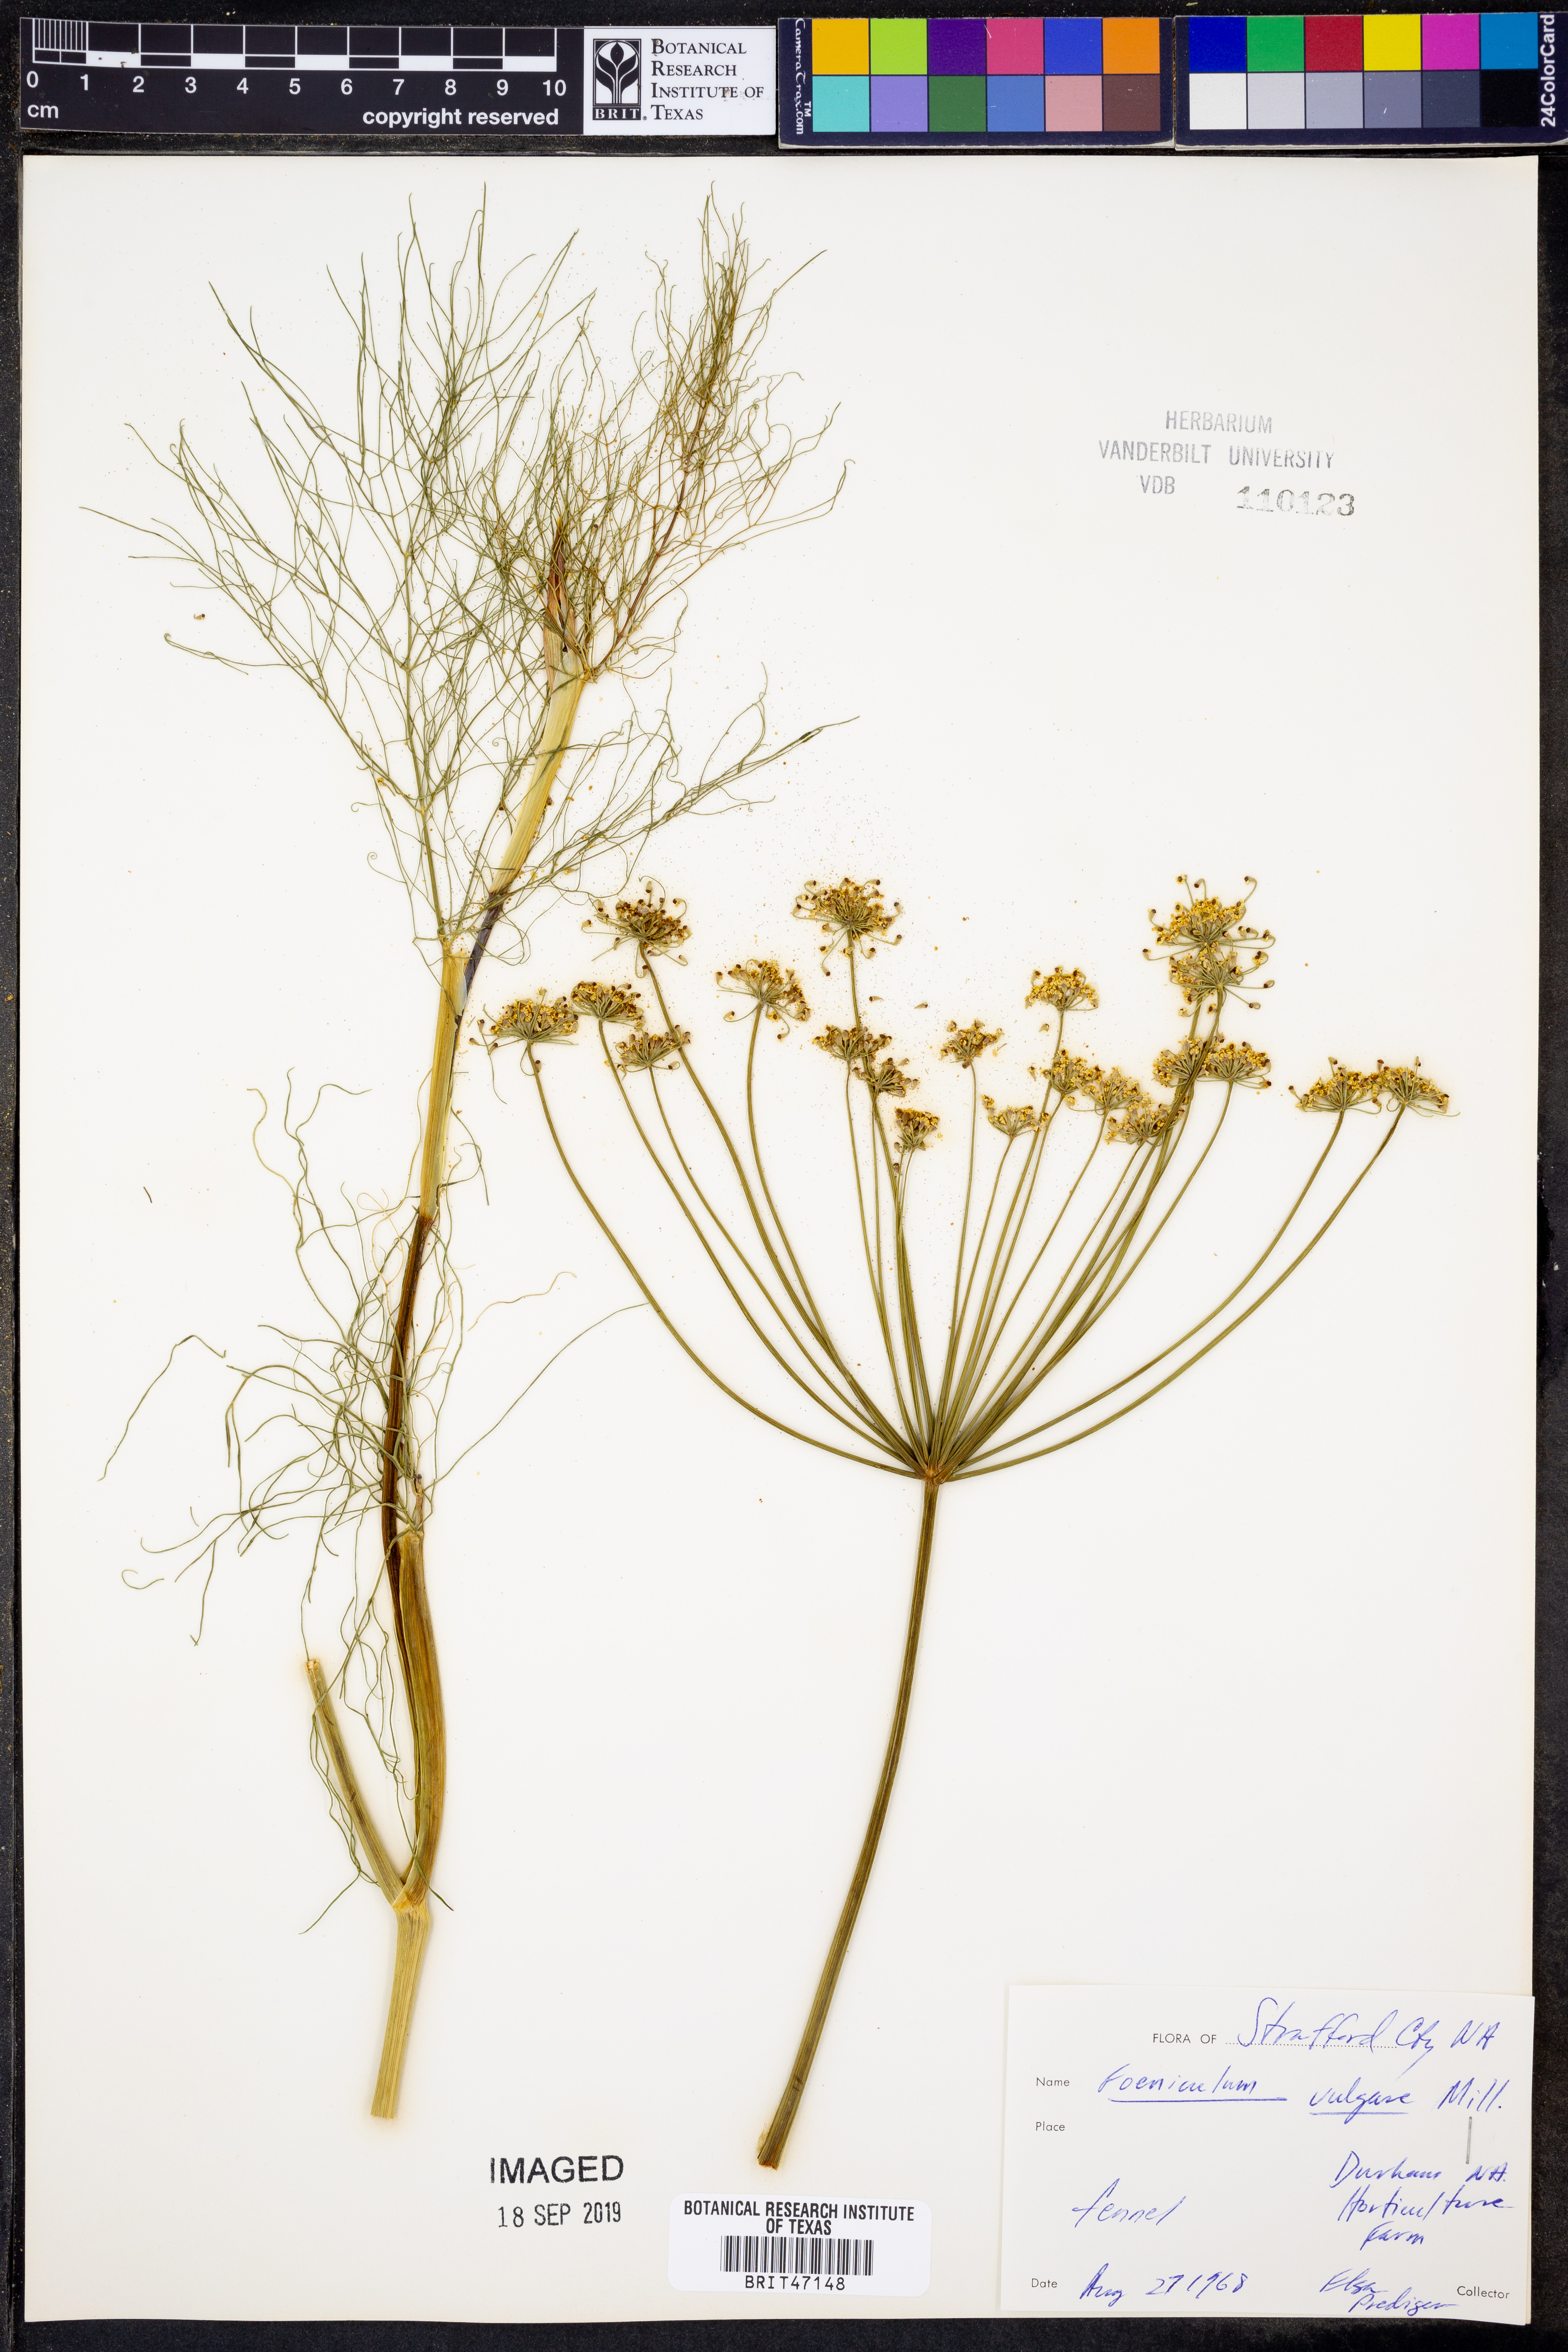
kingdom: Plantae
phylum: Tracheophyta
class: Magnoliopsida
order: Apiales
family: Apiaceae
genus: Foeniculum
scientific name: Foeniculum vulgare
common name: Fennel
